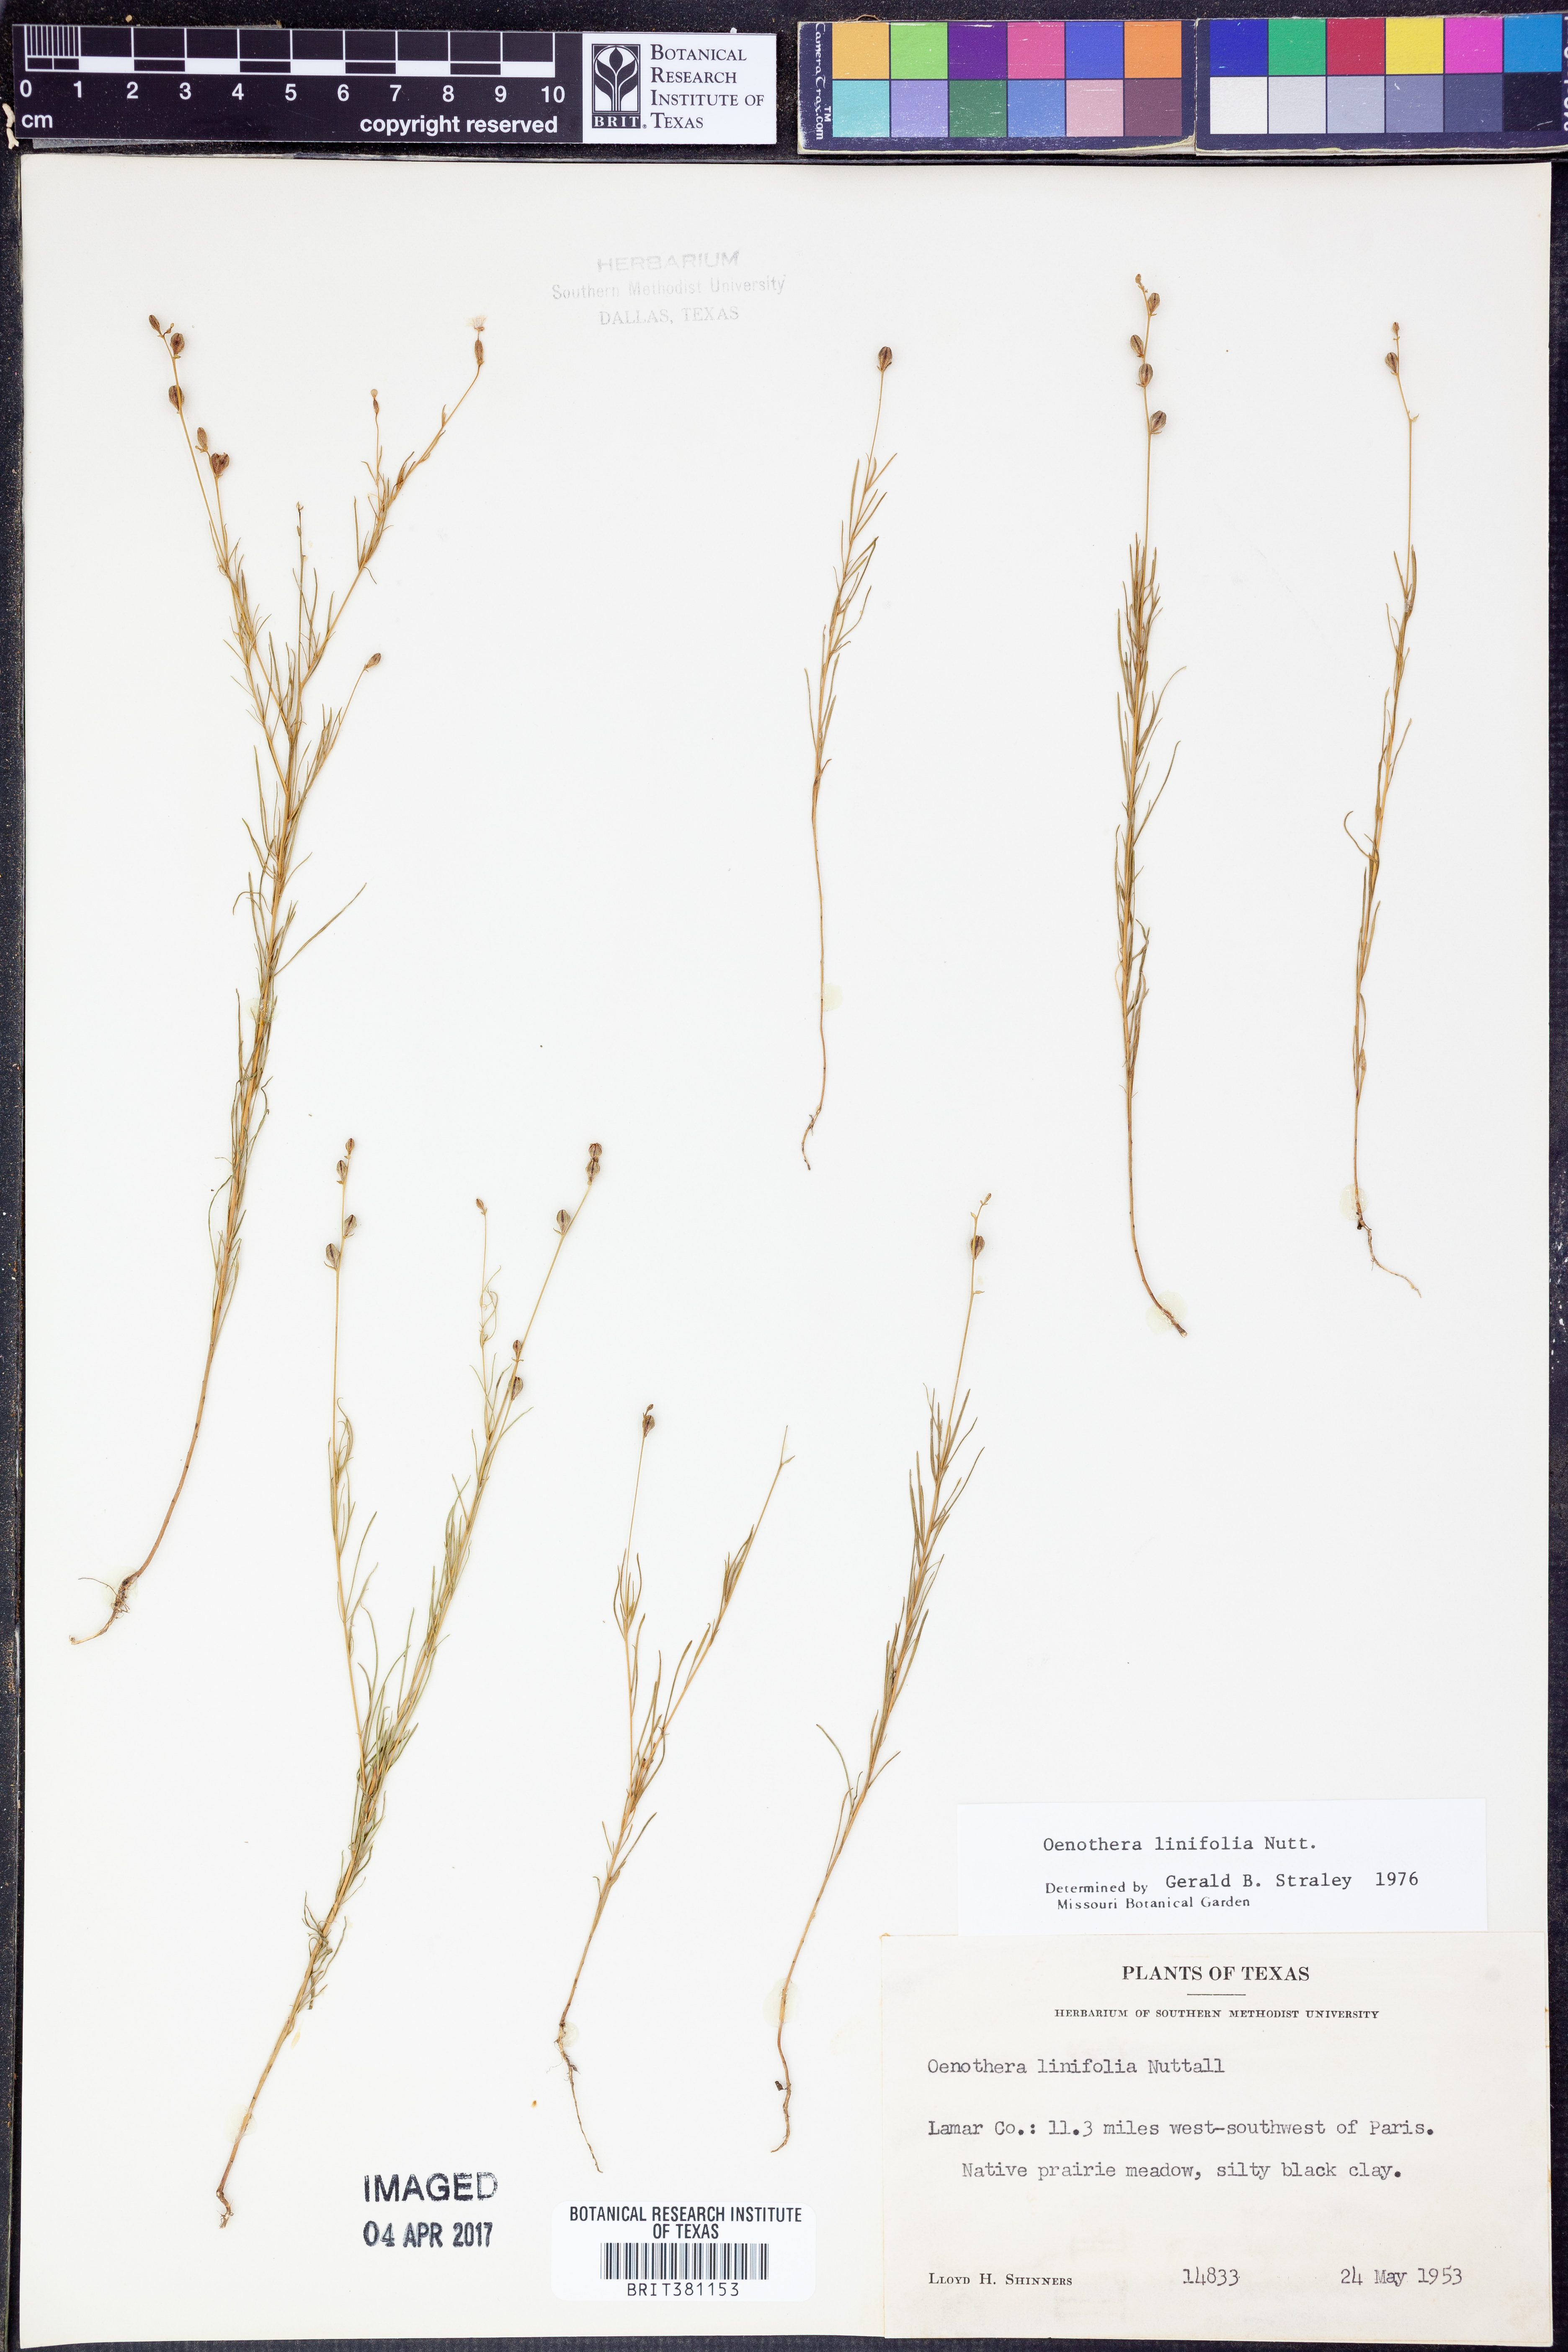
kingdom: Plantae
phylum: Tracheophyta
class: Magnoliopsida
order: Myrtales
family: Onagraceae
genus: Oenothera
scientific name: Oenothera linifolia
